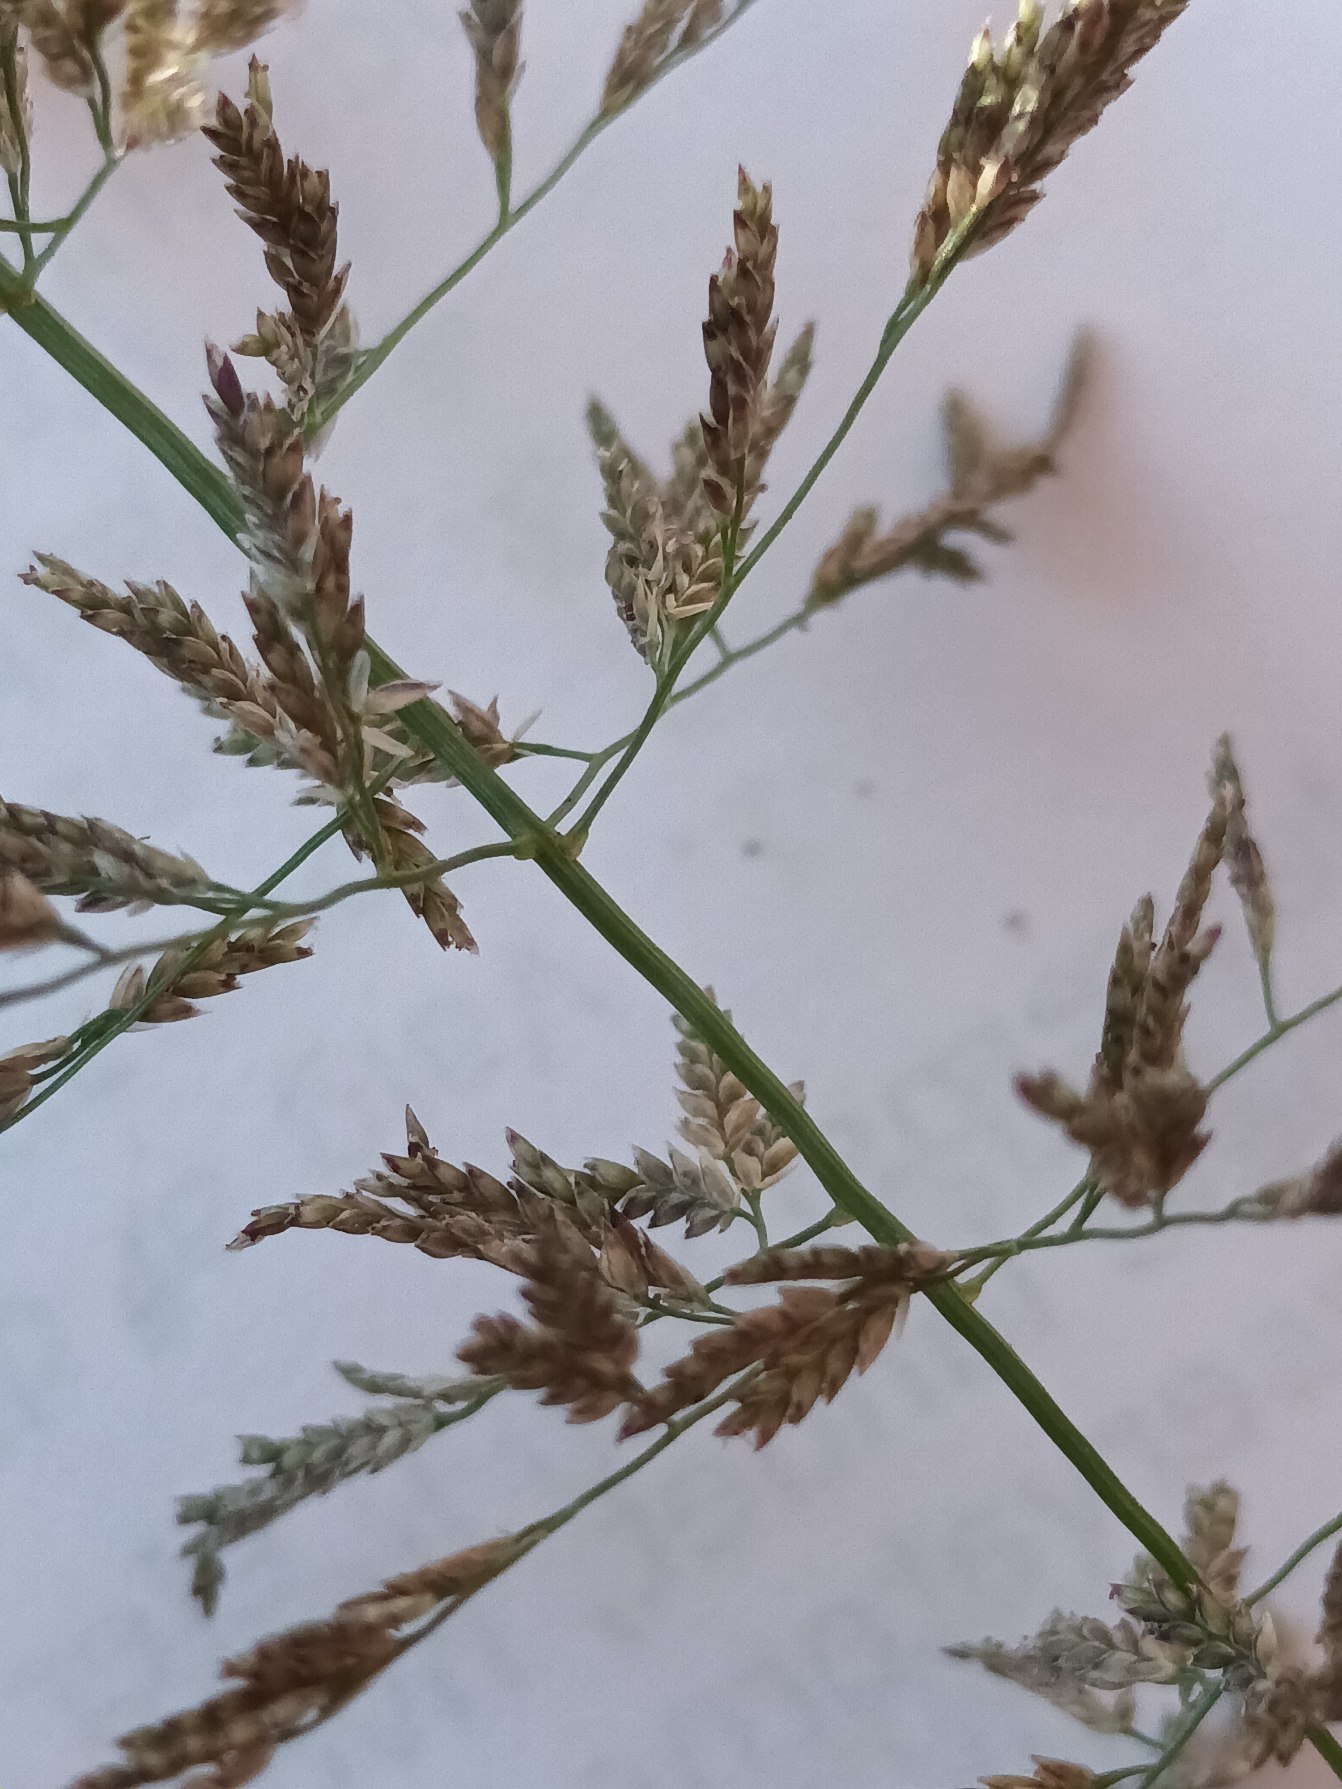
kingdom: Plantae
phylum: Tracheophyta
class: Liliopsida
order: Poales
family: Poaceae
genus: Eragrostis
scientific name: Eragrostis multicaulis
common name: Mangelstænglet kærlighedsgræs
